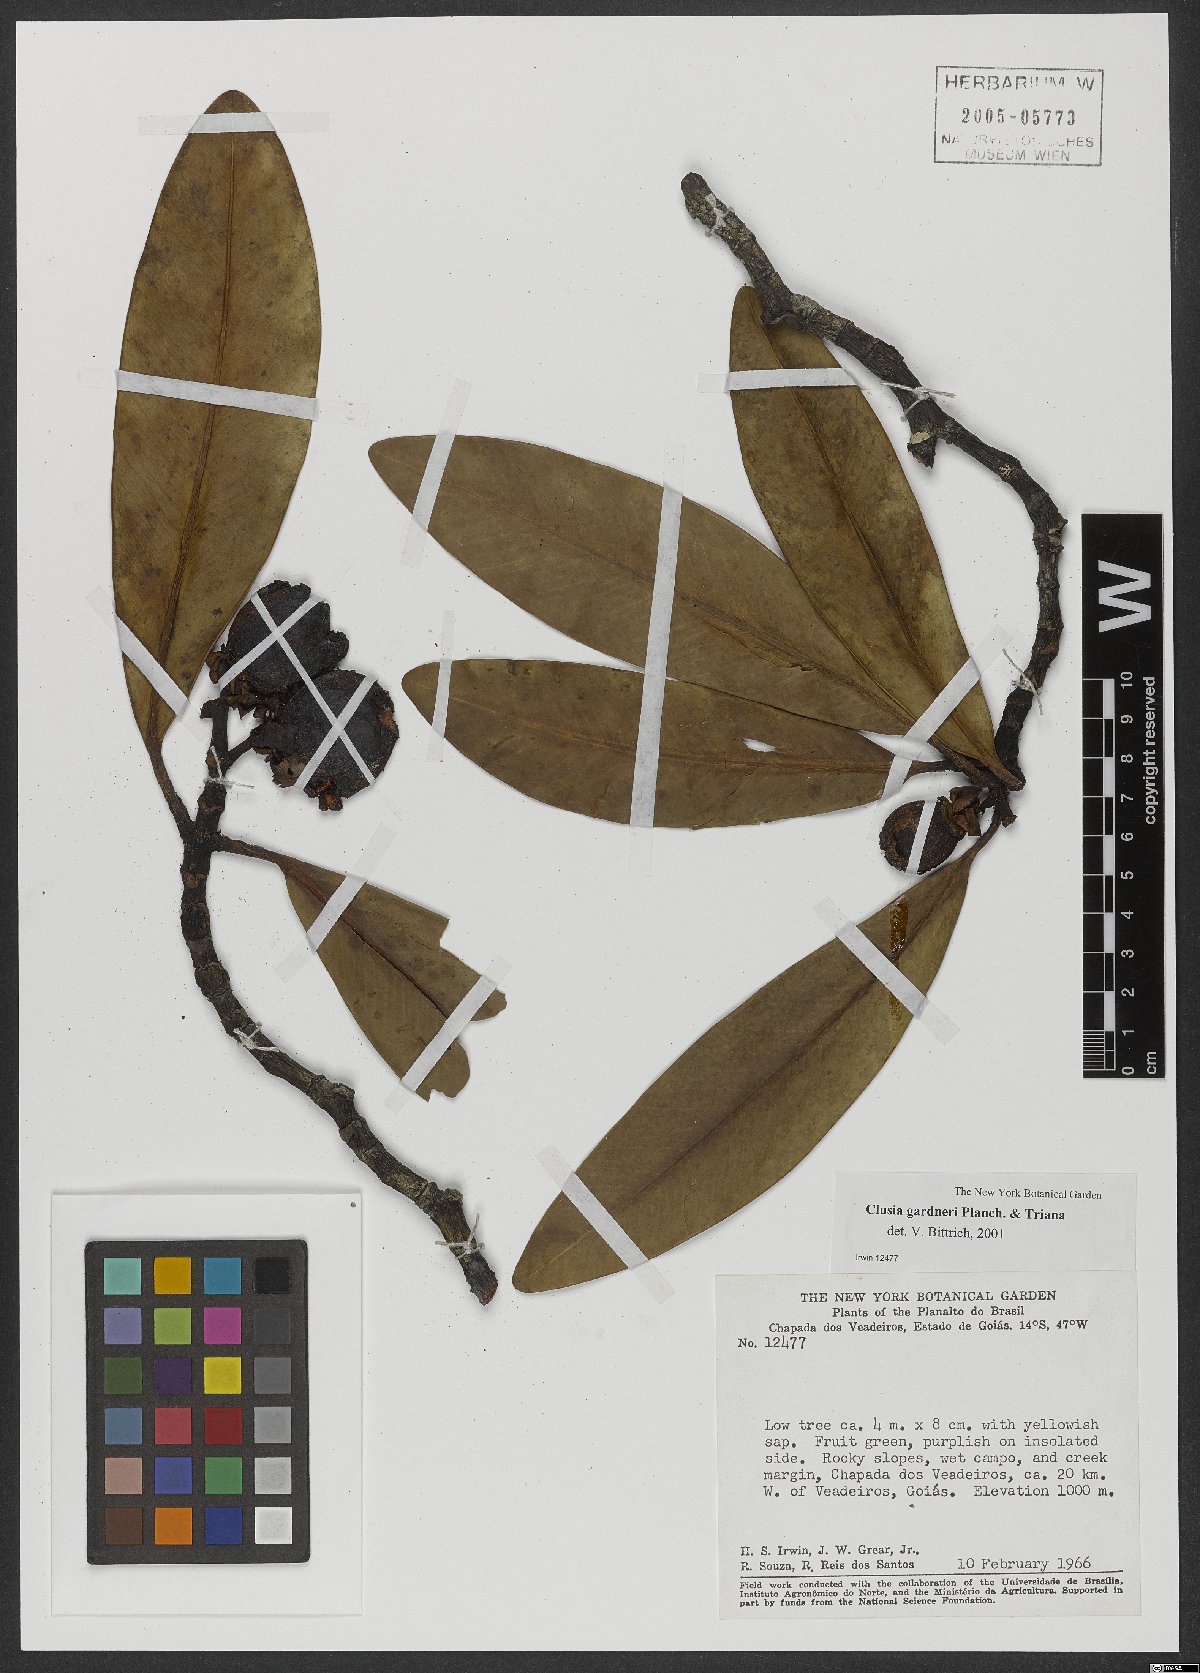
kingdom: Plantae
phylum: Tracheophyta
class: Magnoliopsida
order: Malpighiales
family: Clusiaceae
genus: Clusia
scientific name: Clusia gardneri
